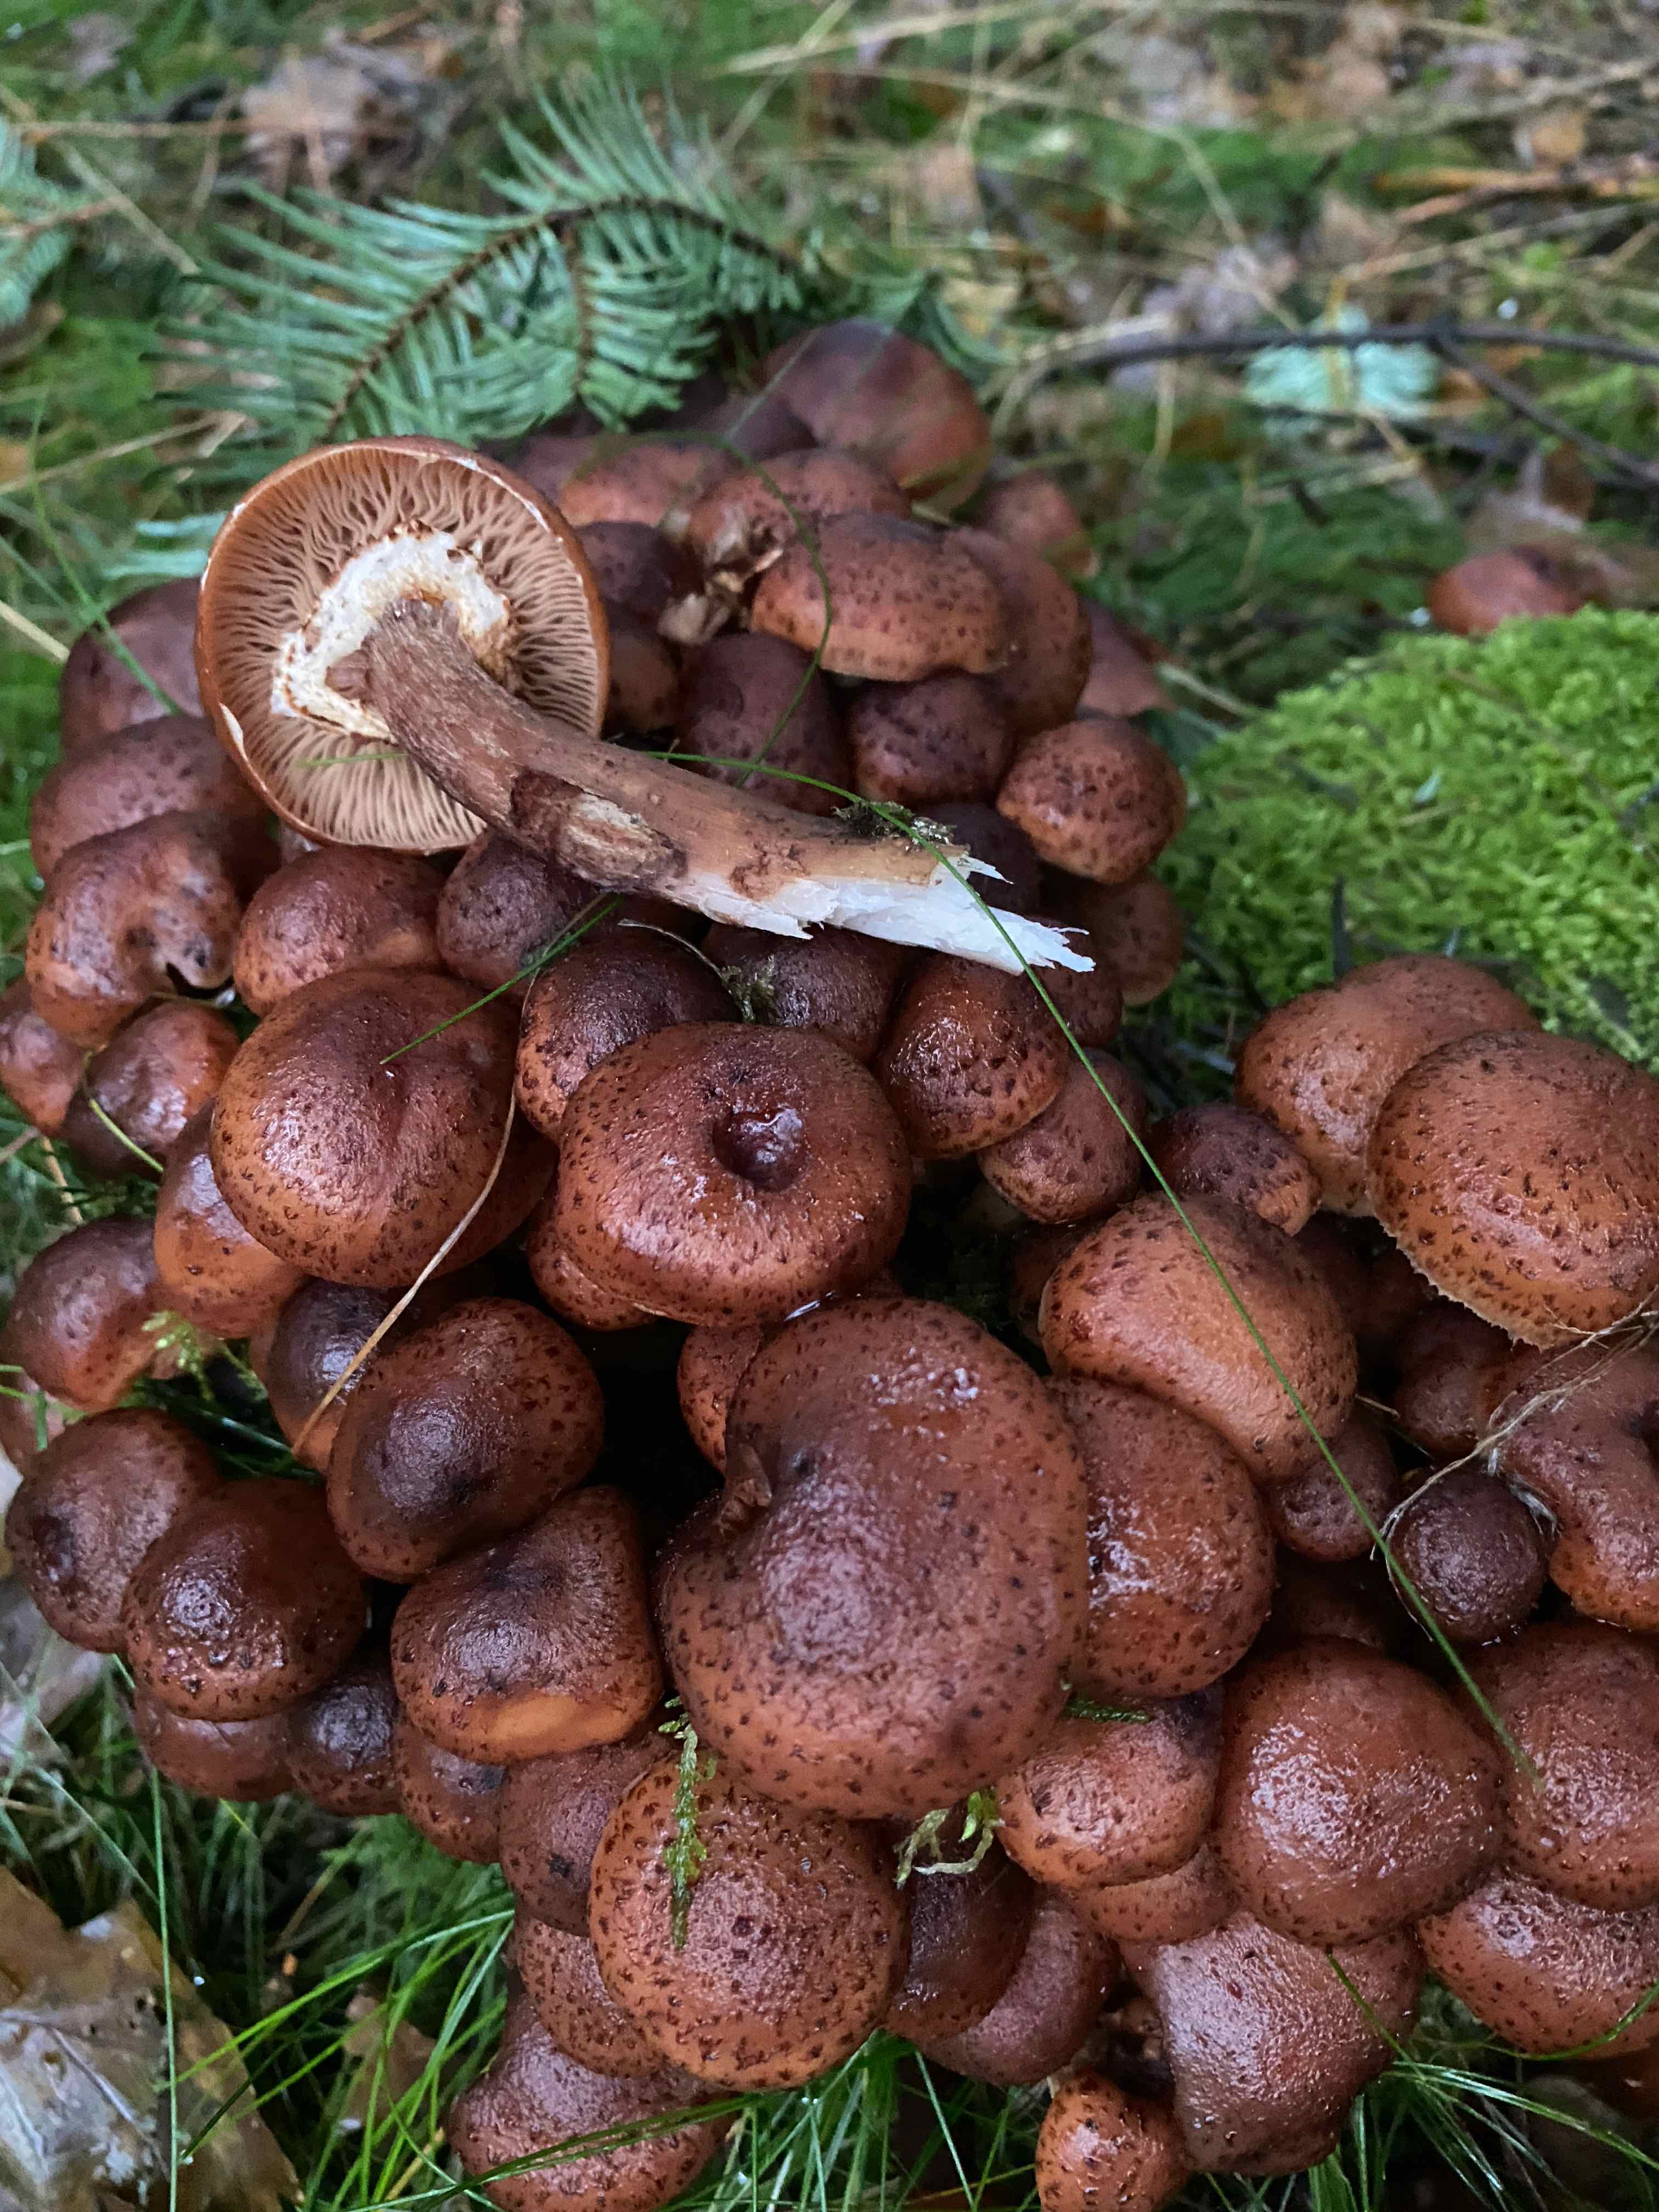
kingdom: Fungi
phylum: Basidiomycota
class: Agaricomycetes
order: Agaricales
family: Physalacriaceae
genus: Armillaria
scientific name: Armillaria ostoyae
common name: mørk honningsvamp
